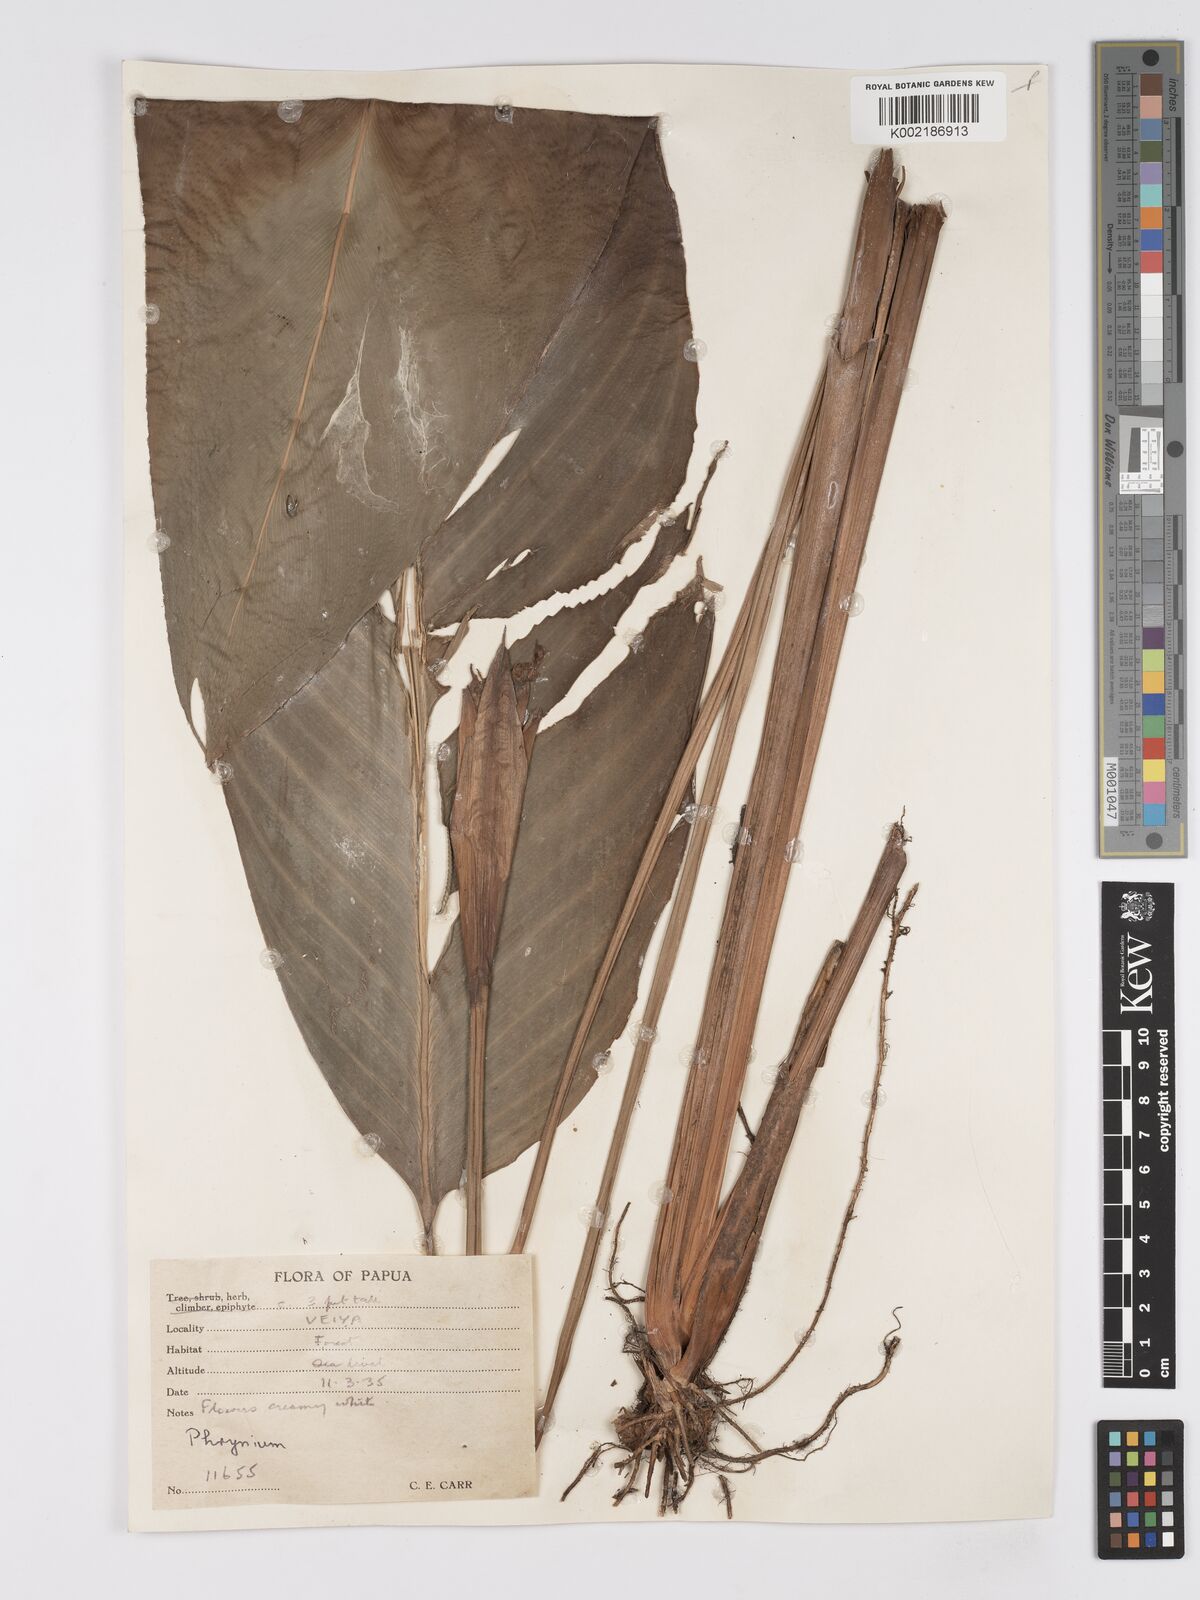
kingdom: Plantae
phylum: Tracheophyta
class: Liliopsida
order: Zingiberales
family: Marantaceae
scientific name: Marantaceae
